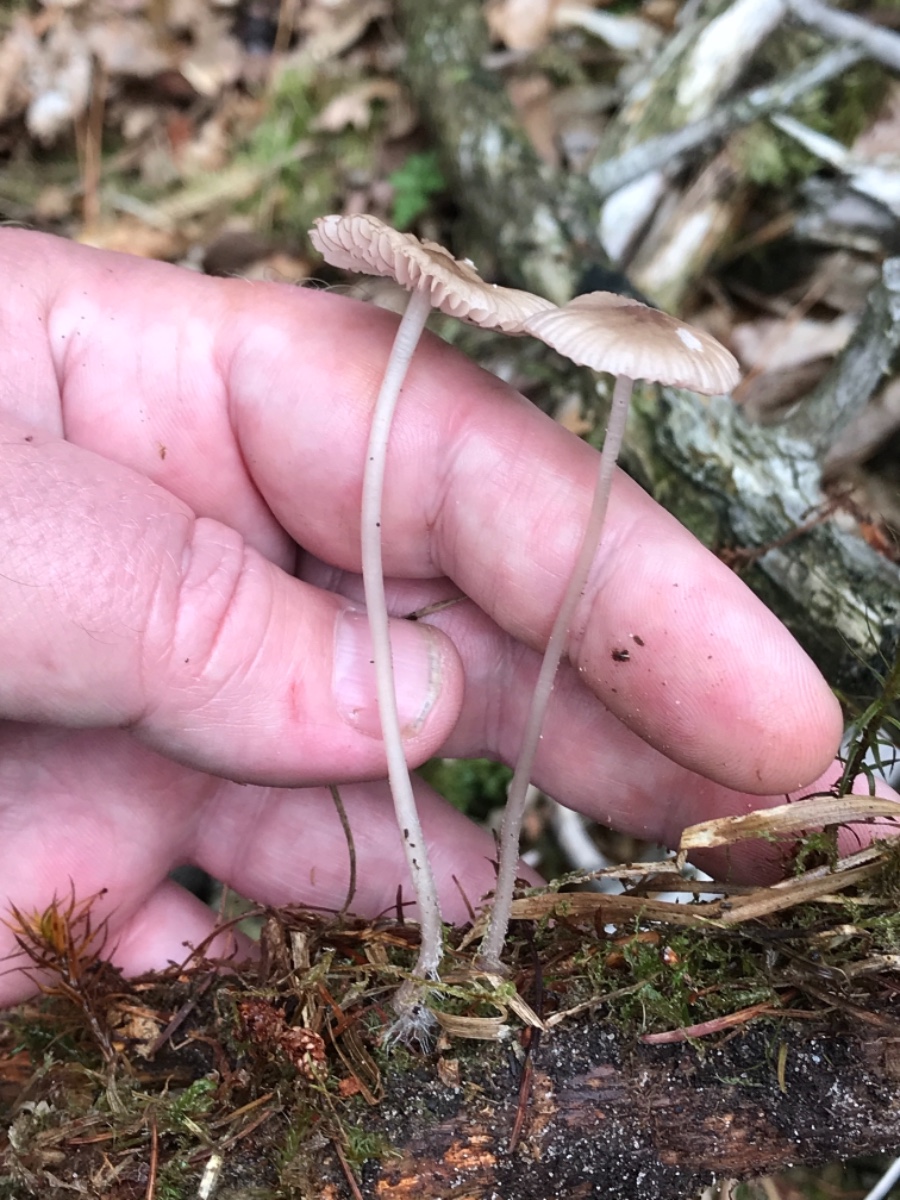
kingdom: Fungi
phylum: Basidiomycota
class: Agaricomycetes
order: Agaricales
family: Mycenaceae
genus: Mycena
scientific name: Mycena rubromarginata
